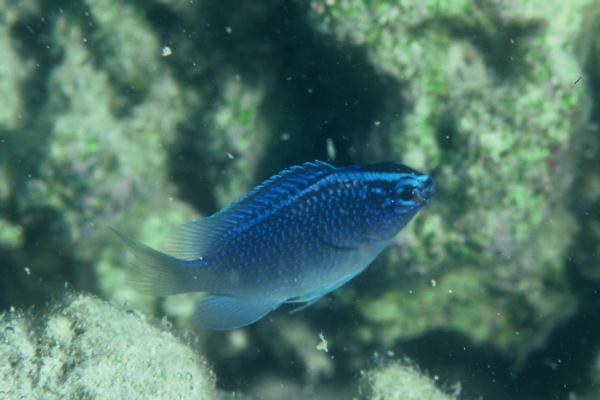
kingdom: Animalia
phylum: Chordata
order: Perciformes
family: Pomacentridae
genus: Chrysiptera
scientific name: Chrysiptera glauca
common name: Grey demoiselle
